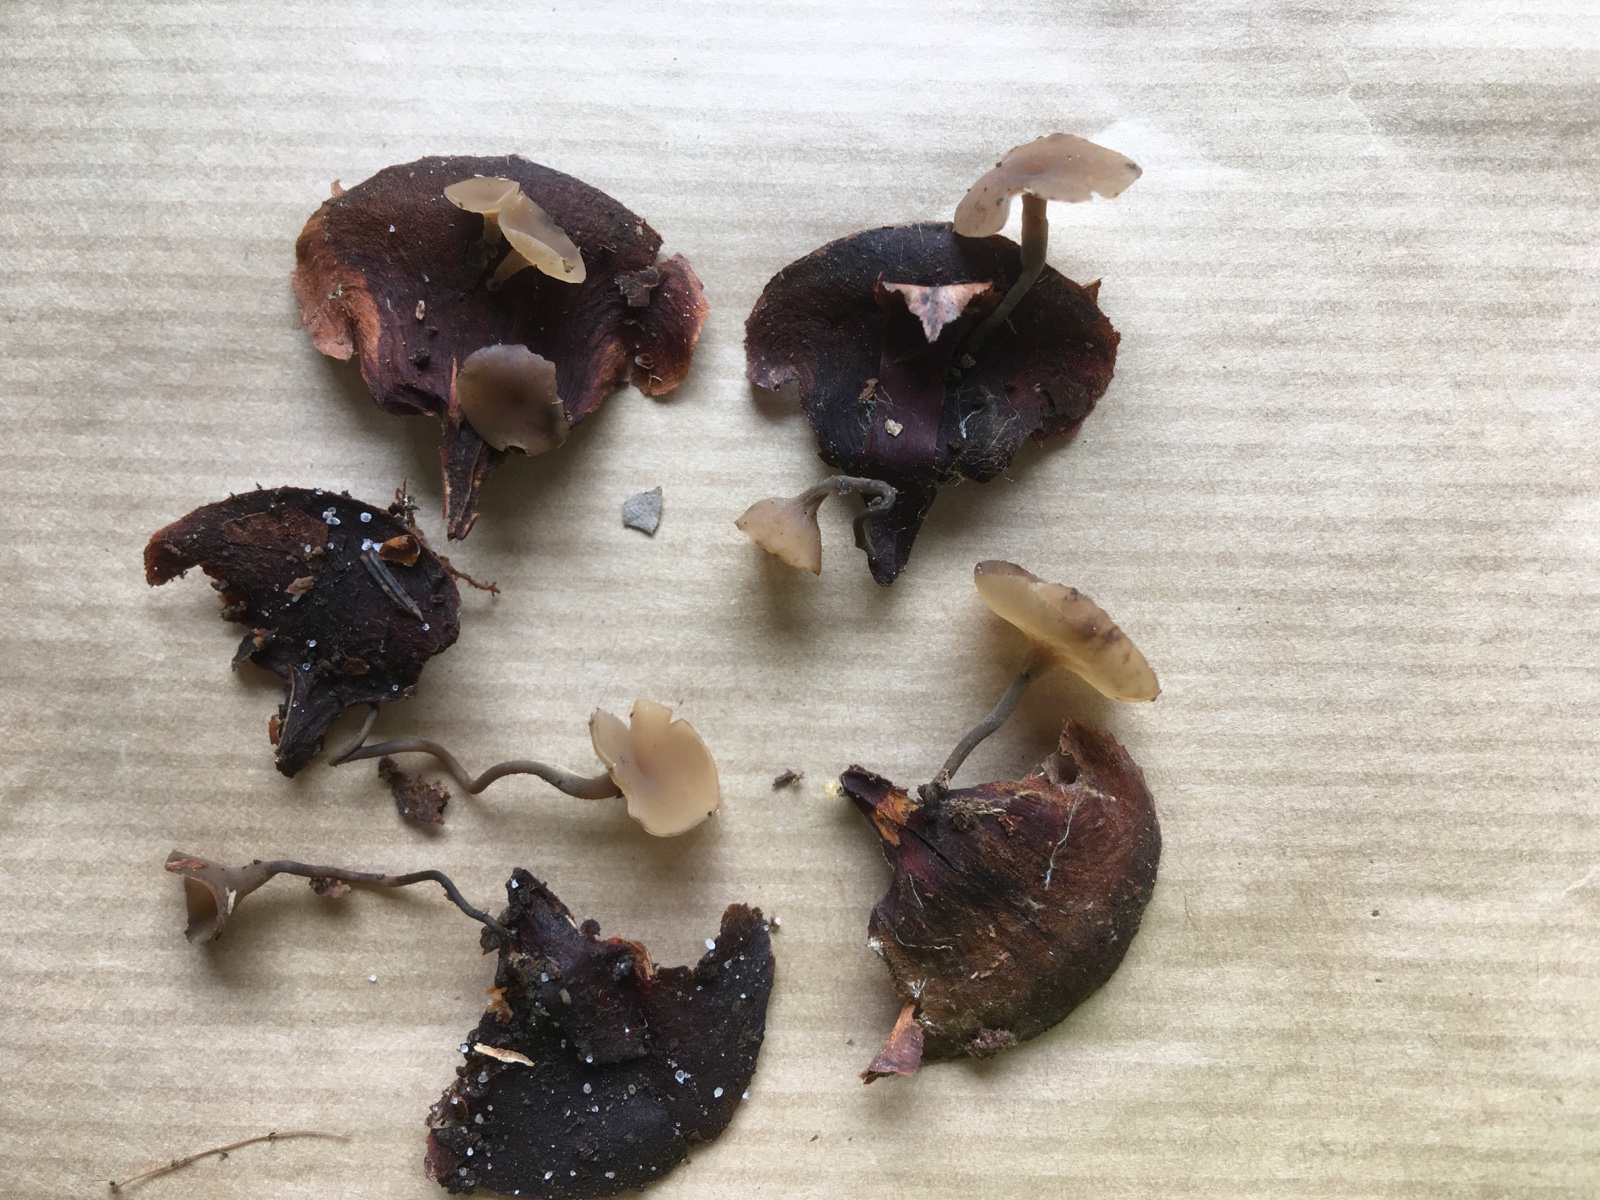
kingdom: Fungi
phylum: Ascomycota
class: Leotiomycetes
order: Helotiales
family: Sclerotiniaceae
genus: Ciboria
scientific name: Ciboria rufofusca
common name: kogleskæl-knoldskive
